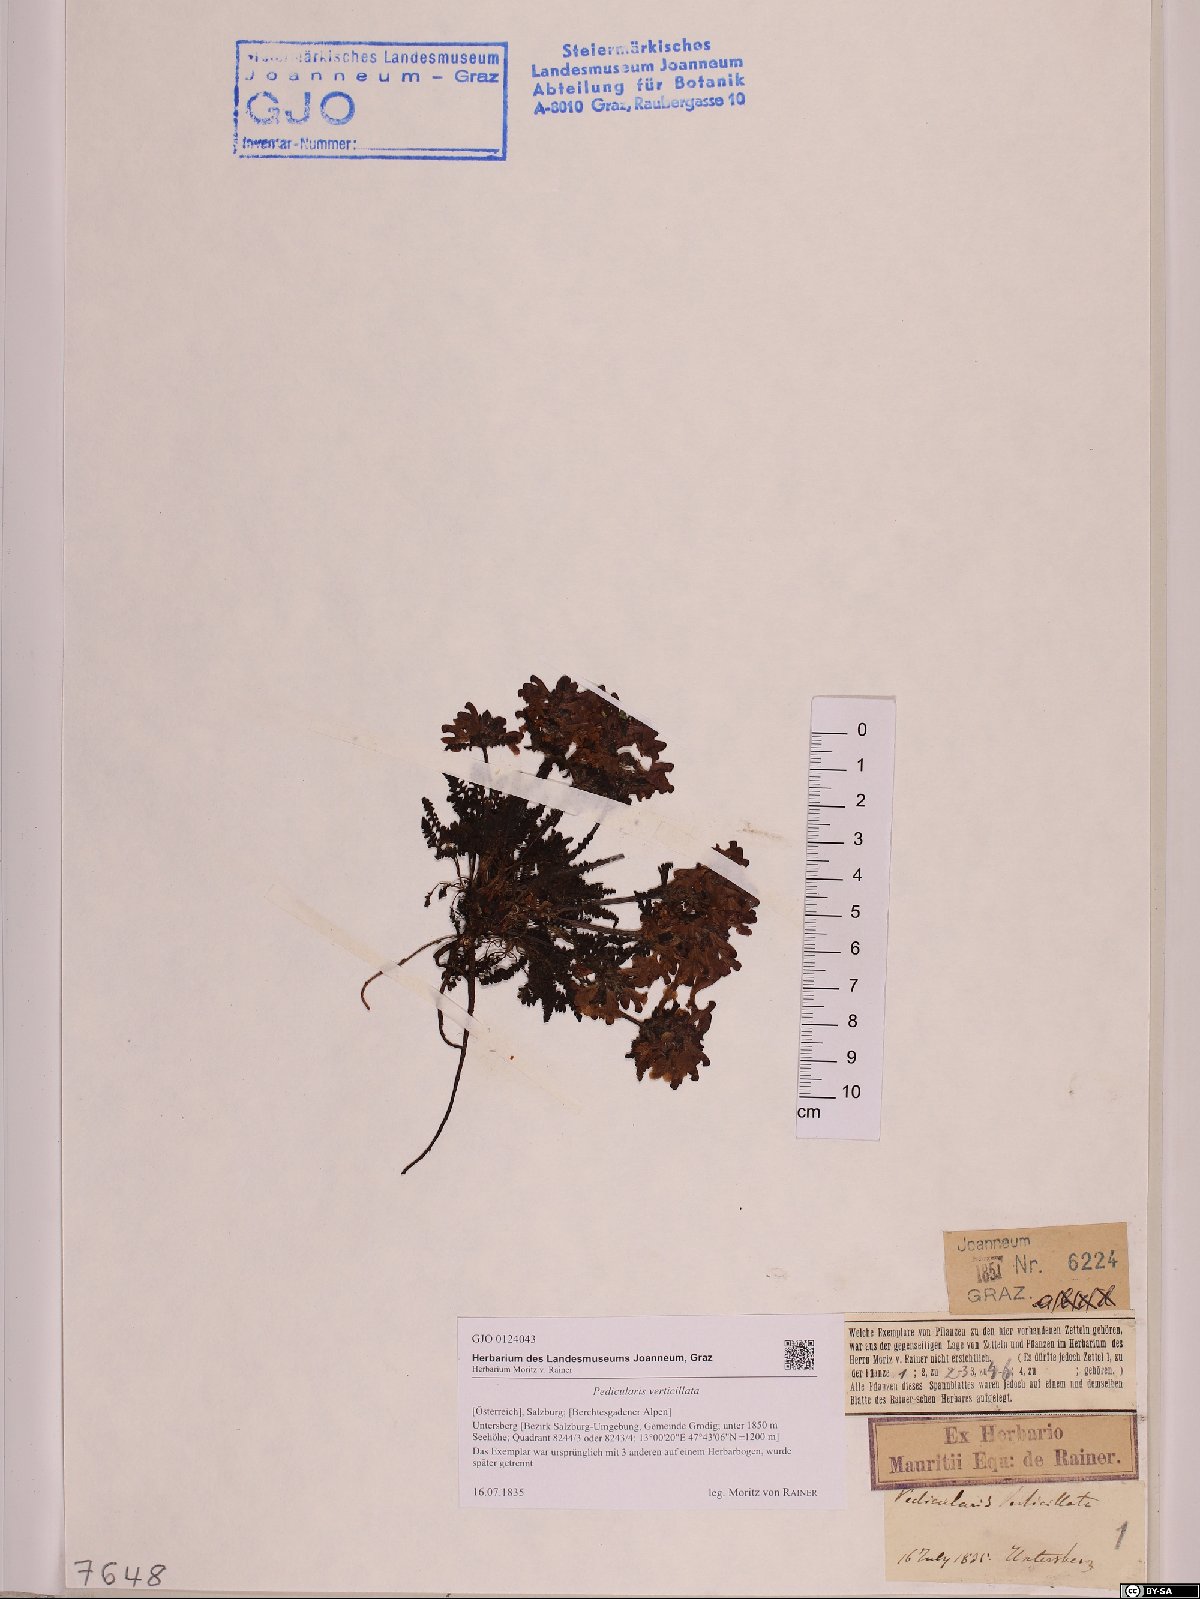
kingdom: Plantae
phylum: Tracheophyta
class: Magnoliopsida
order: Lamiales
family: Orobanchaceae
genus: Pedicularis
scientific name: Pedicularis verticillata
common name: Whorled lousewort
